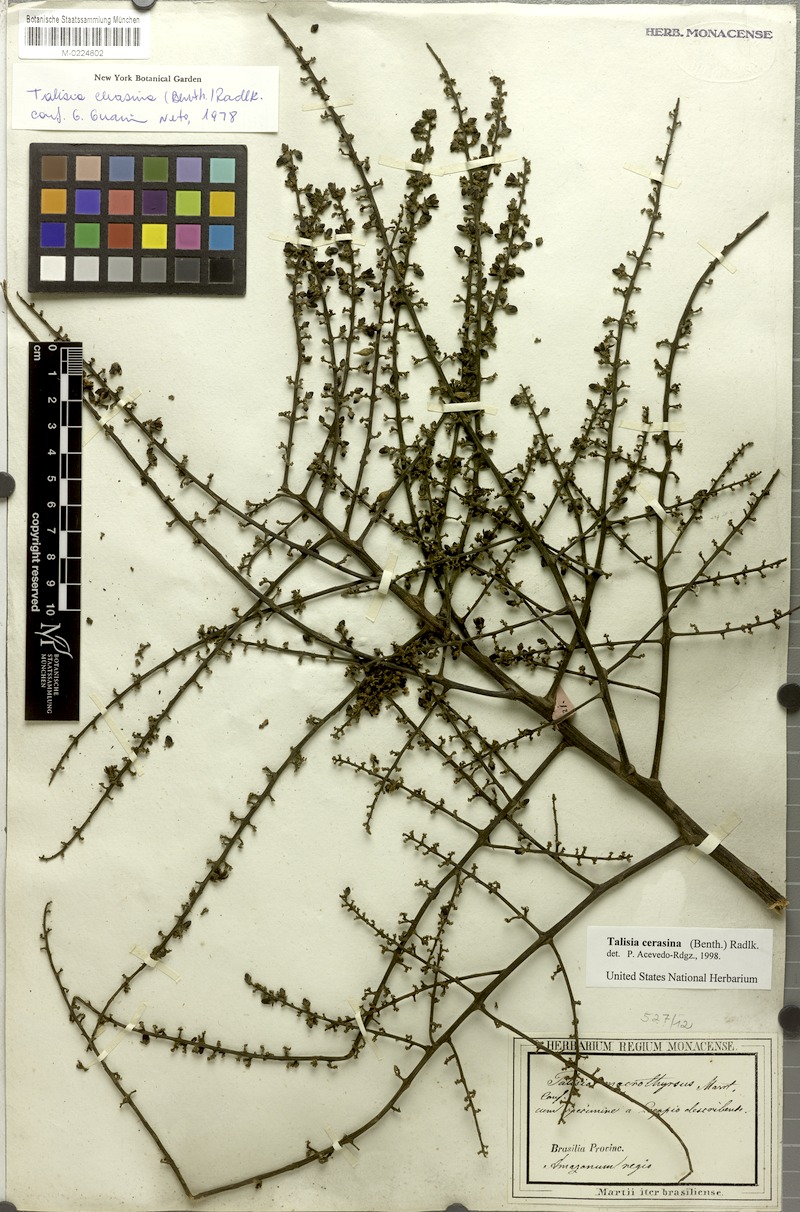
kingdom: Plantae
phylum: Tracheophyta
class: Magnoliopsida
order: Sapindales
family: Sapindaceae
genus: Talisia
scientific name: Talisia cerasina
